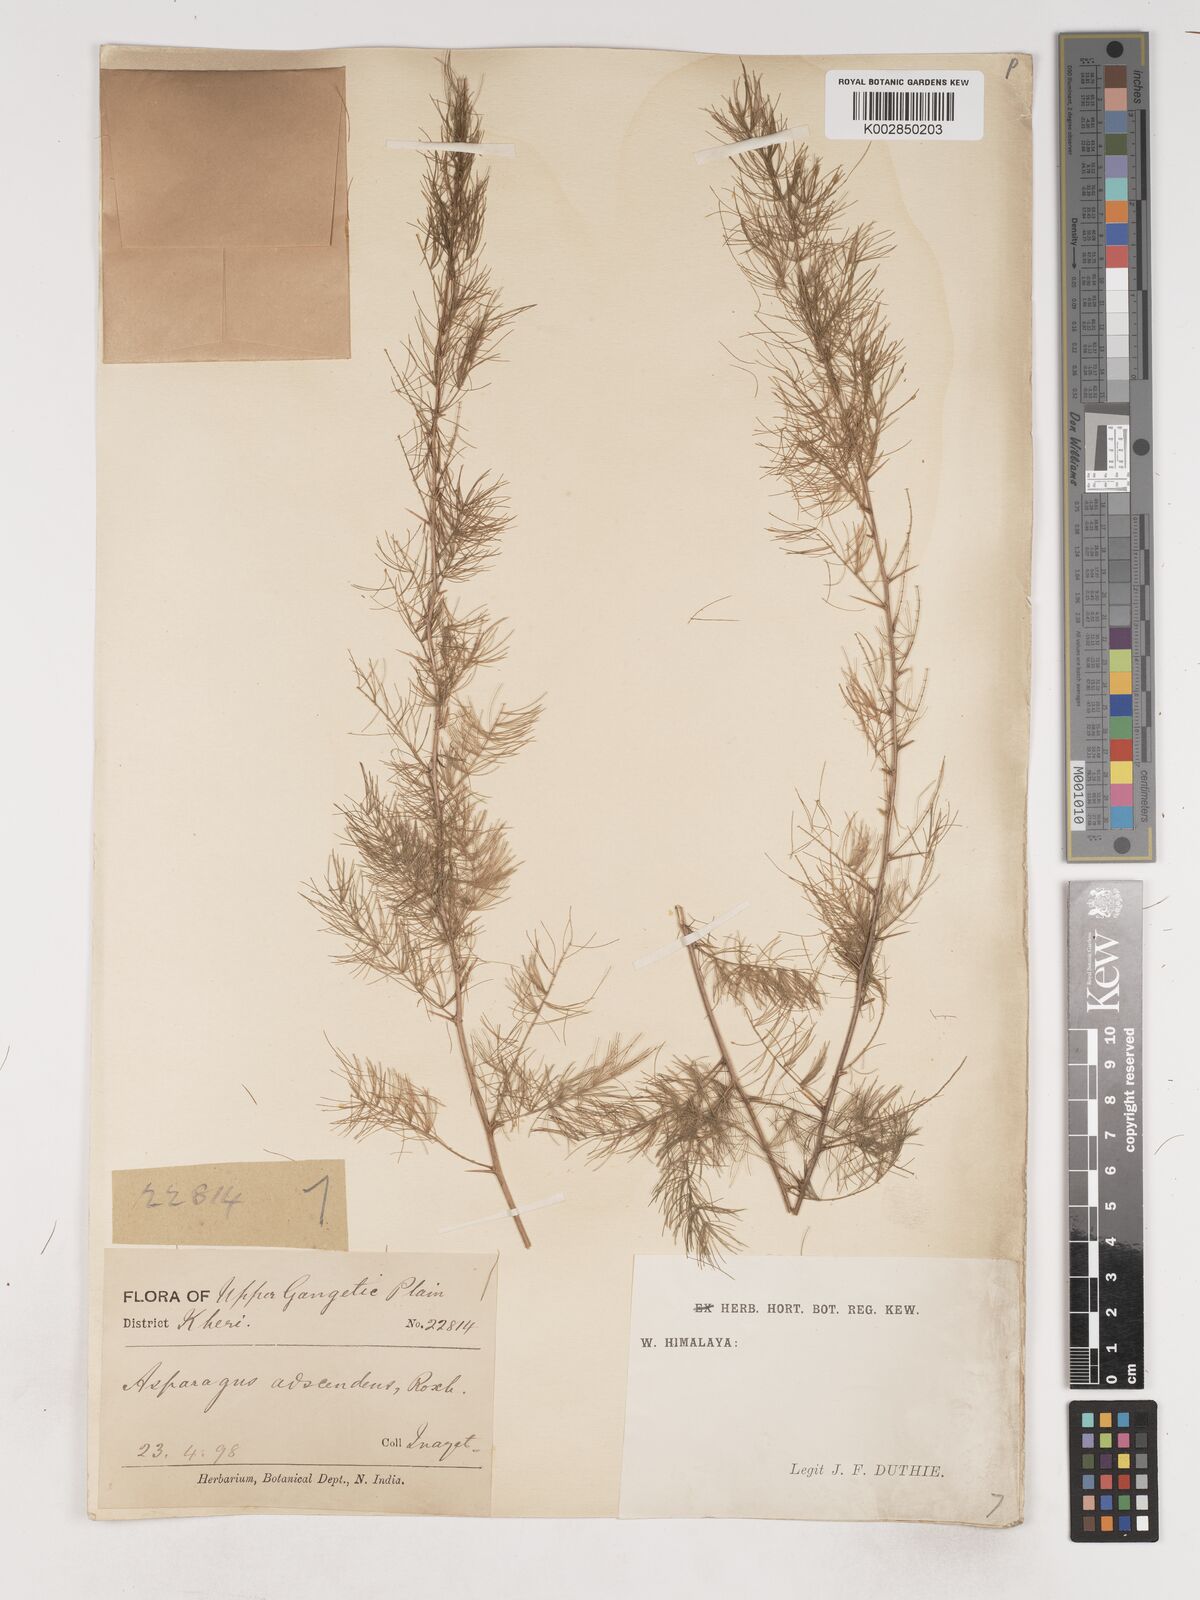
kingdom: Plantae
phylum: Tracheophyta
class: Liliopsida
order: Asparagales
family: Asparagaceae
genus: Asparagus
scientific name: Asparagus adscendens
